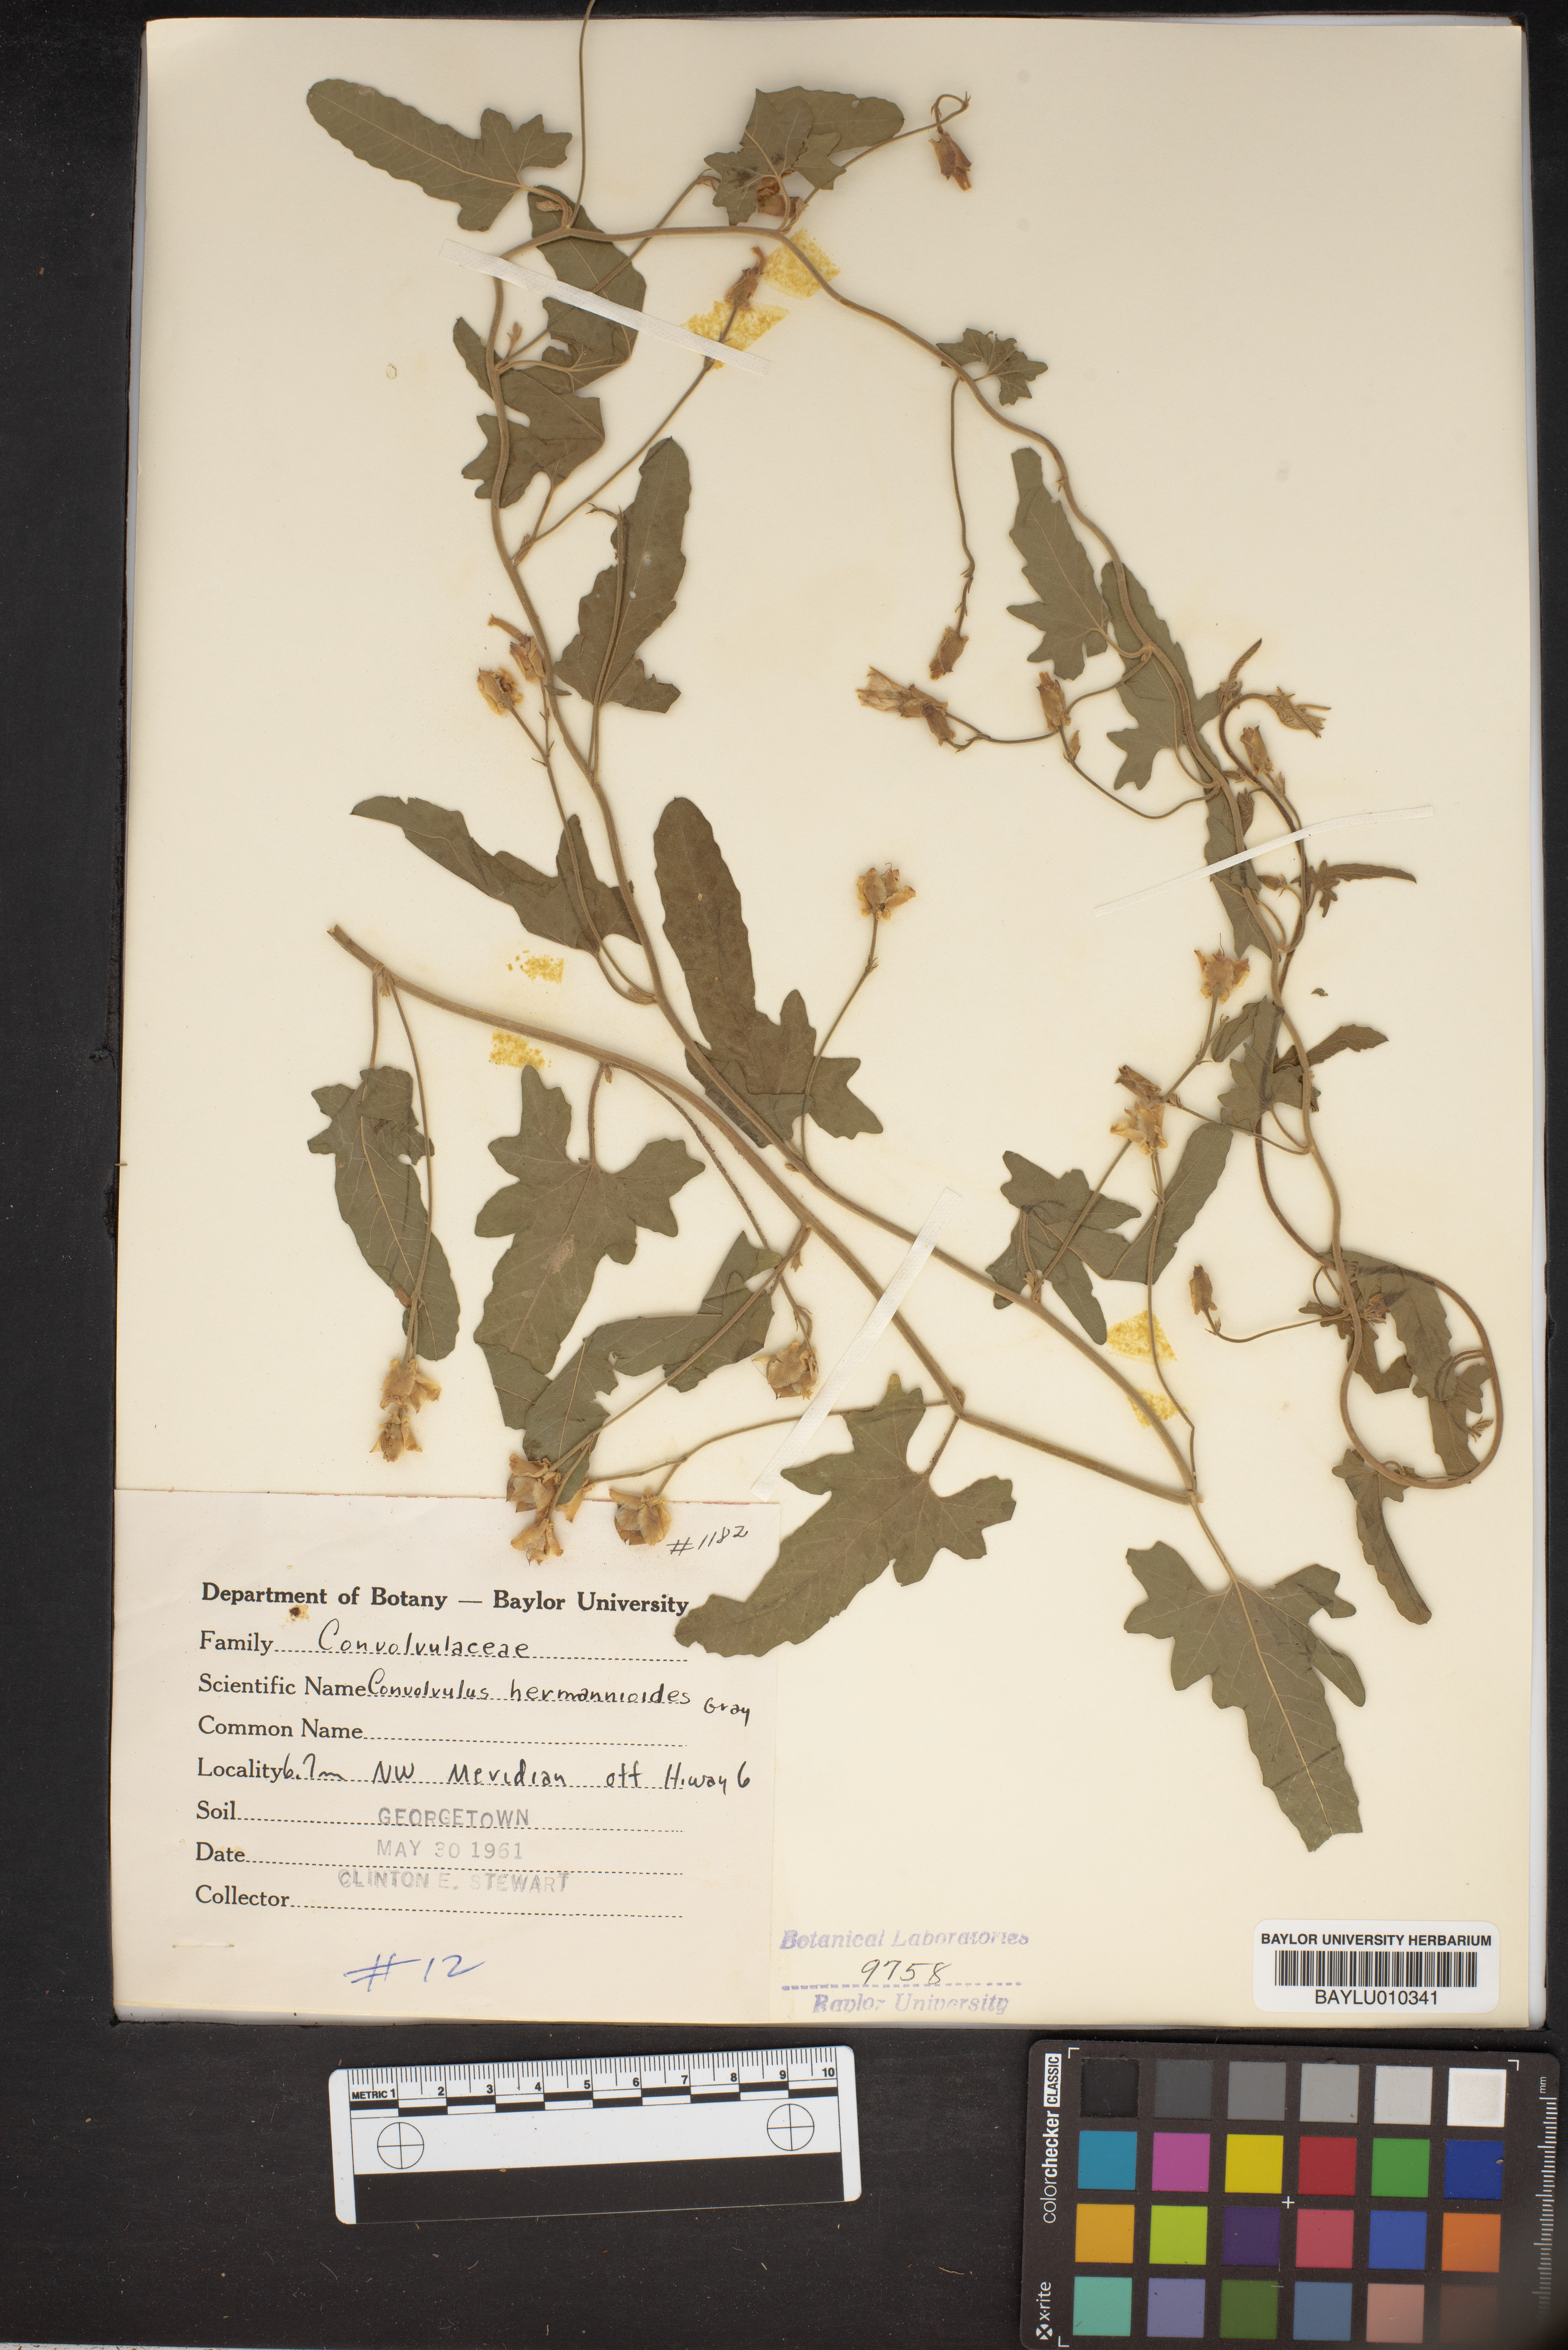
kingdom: Plantae
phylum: Tracheophyta
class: Magnoliopsida
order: Solanales
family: Convolvulaceae
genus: Convolvulus
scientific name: Convolvulus equitans
